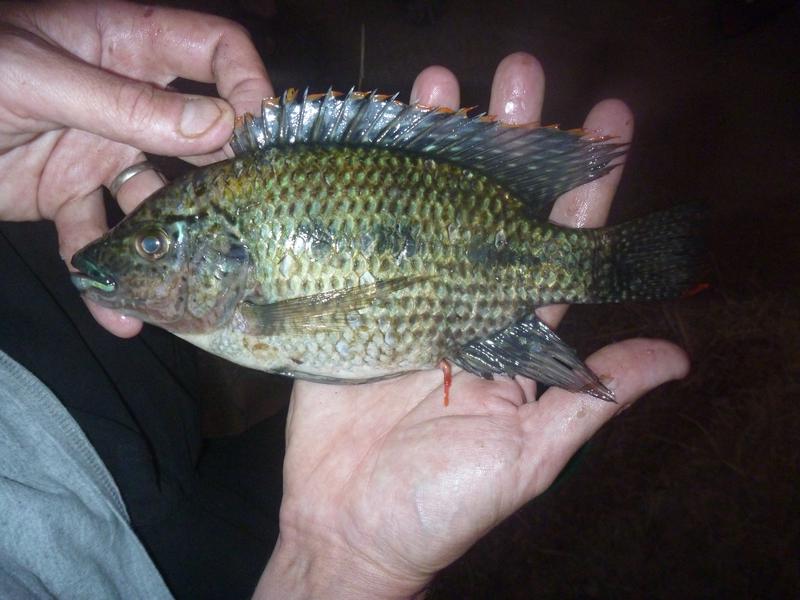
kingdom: Animalia
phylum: Chordata
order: Perciformes
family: Cichlidae
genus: Oreochromis
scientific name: Oreochromis karomo
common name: Karomo
